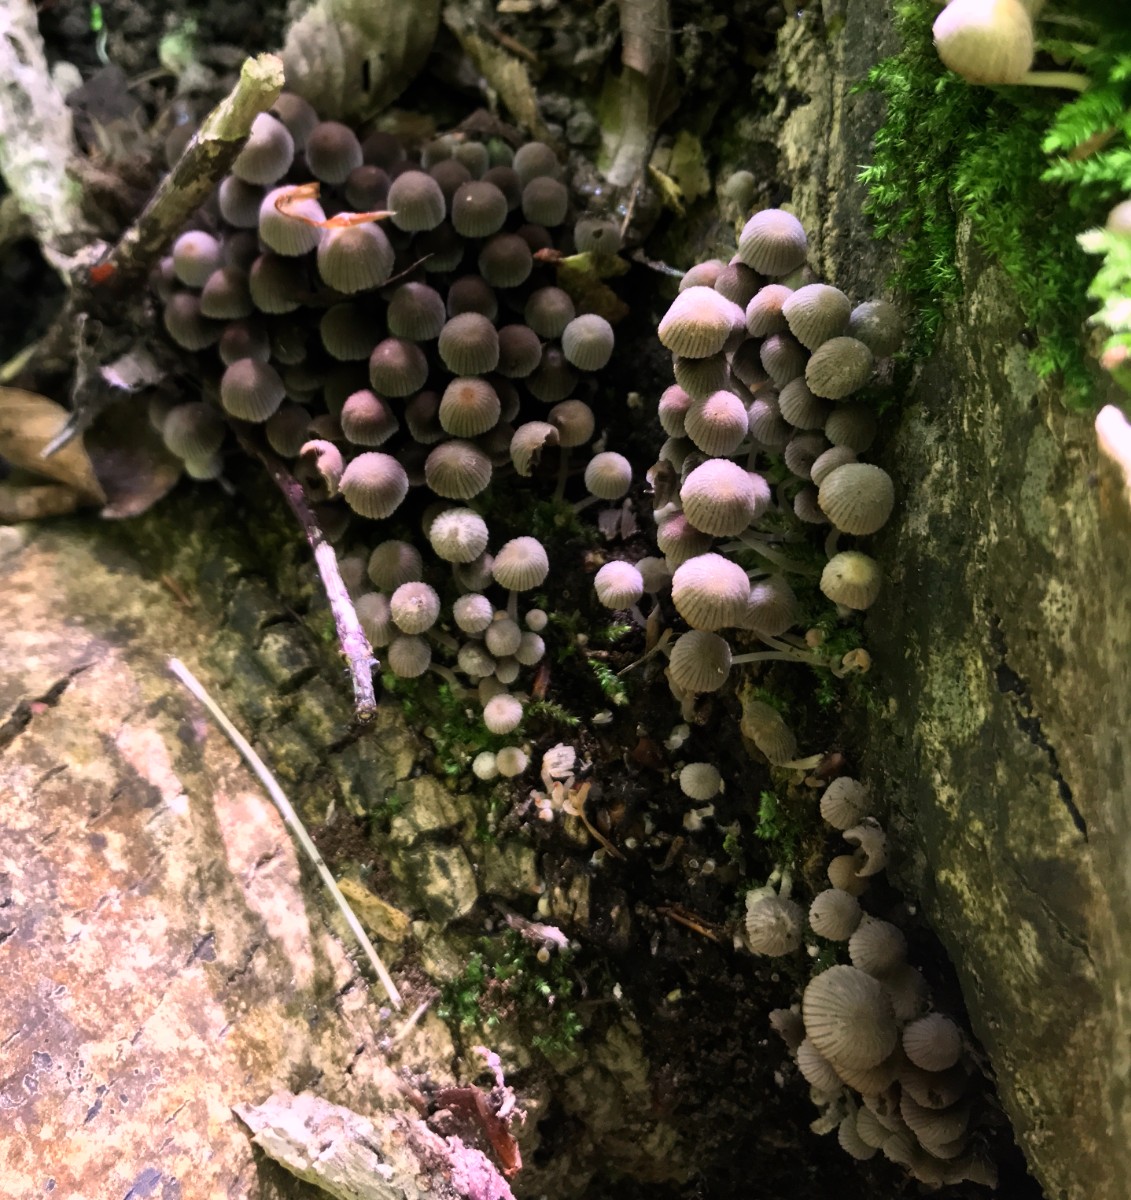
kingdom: Fungi
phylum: Basidiomycota
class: Agaricomycetes
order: Agaricales
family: Psathyrellaceae
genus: Coprinellus
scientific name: Coprinellus disseminatus
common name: bredsået blækhat
